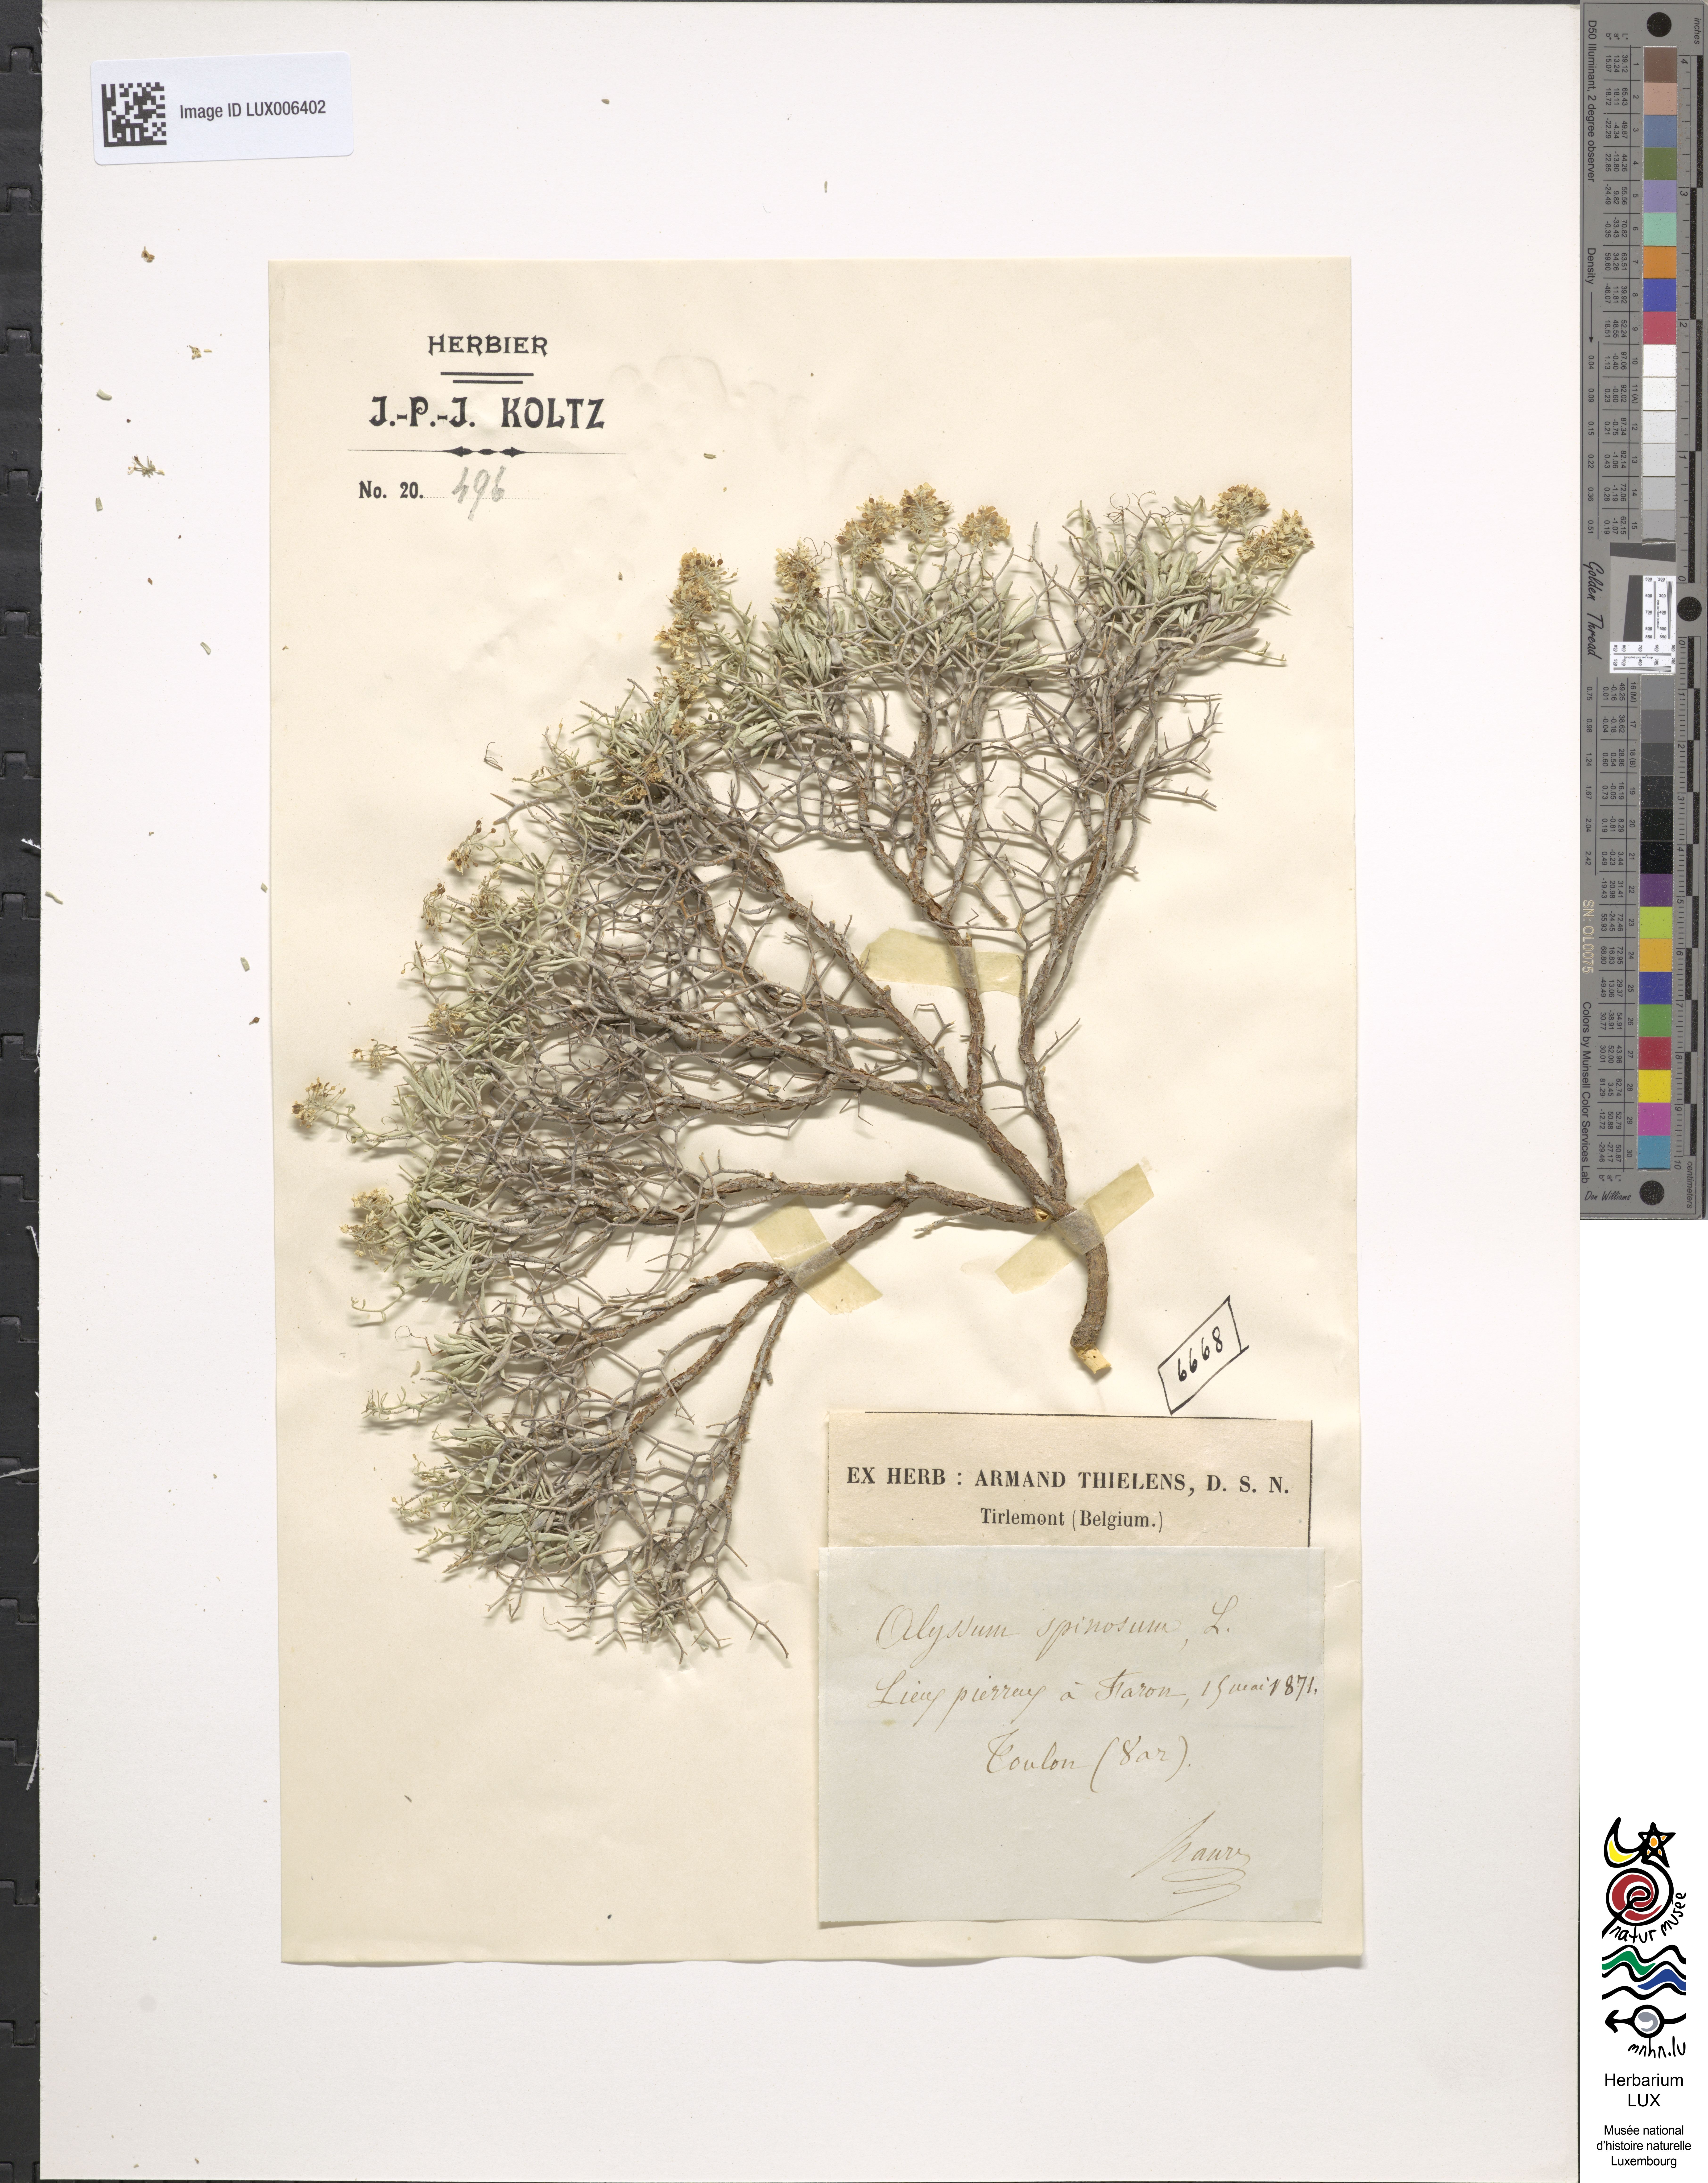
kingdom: Plantae
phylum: Tracheophyta
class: Magnoliopsida
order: Brassicales
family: Brassicaceae
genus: Hormathophylla
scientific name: Hormathophylla spinosa
